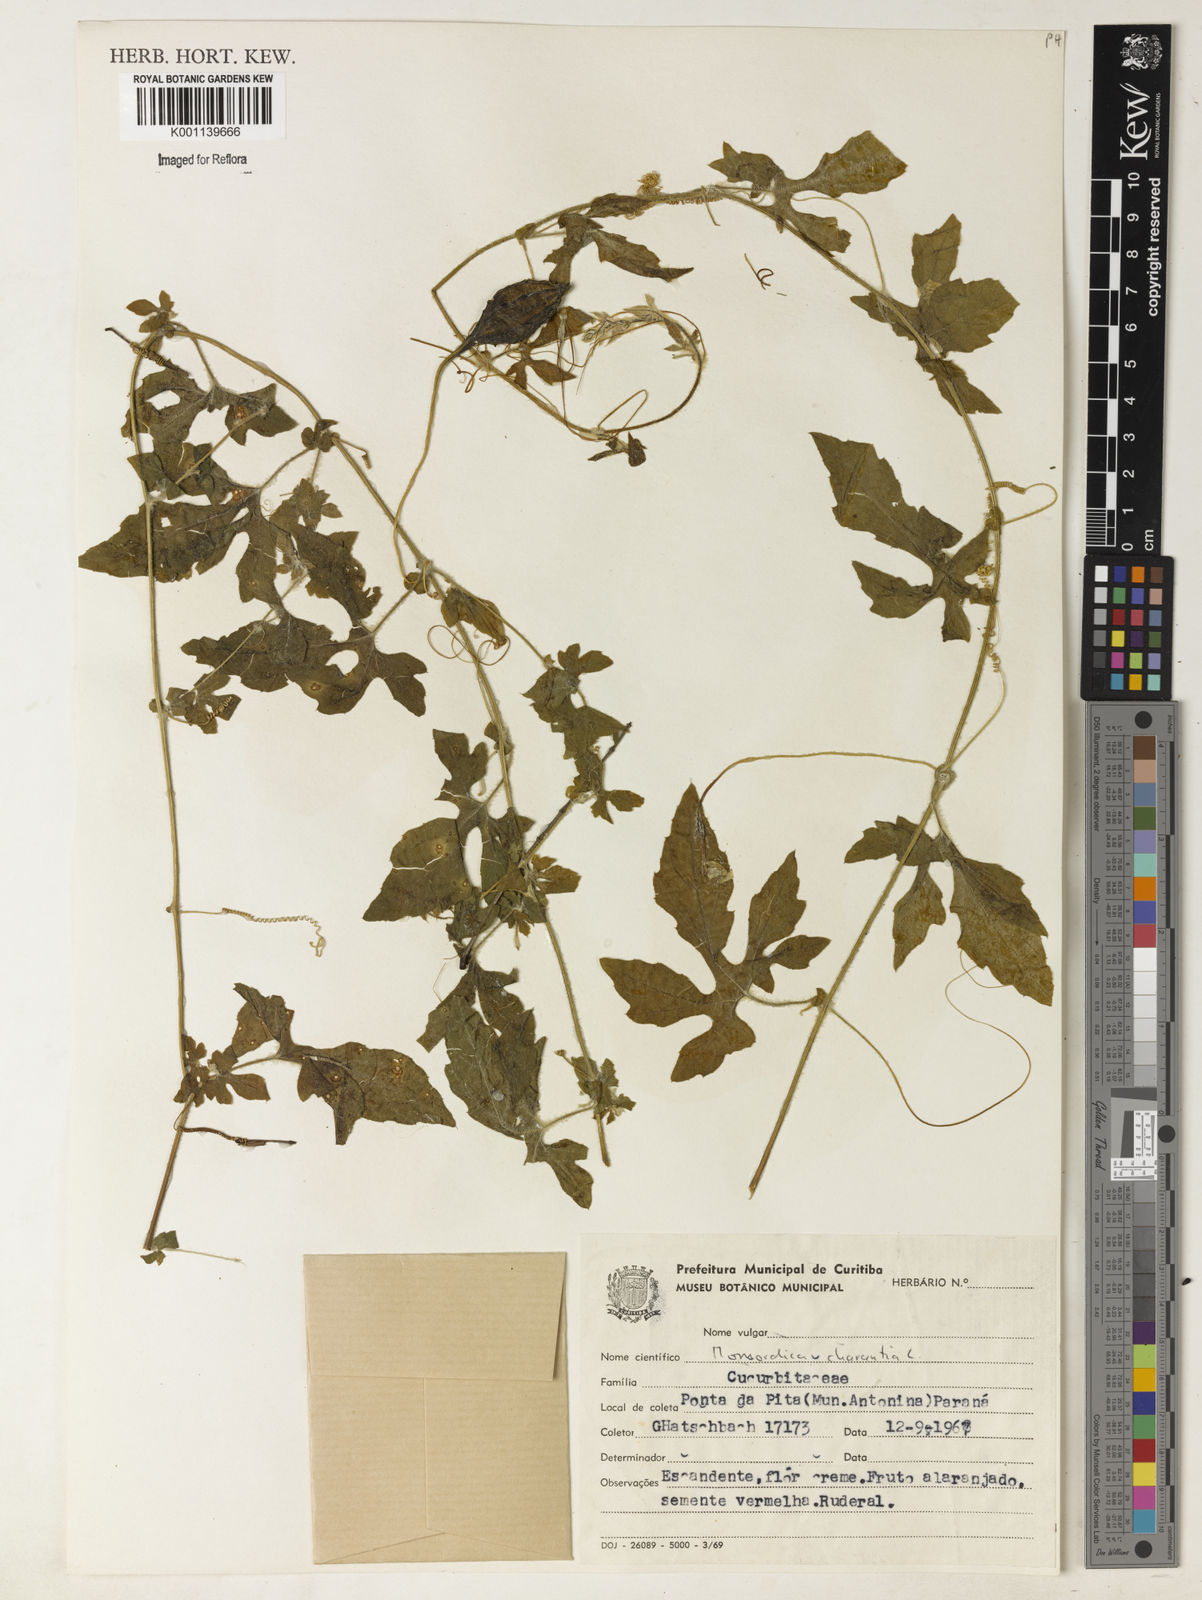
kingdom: Plantae
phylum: Tracheophyta
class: Magnoliopsida
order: Cucurbitales
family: Cucurbitaceae
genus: Momordica
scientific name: Momordica charantia
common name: Balsampear
